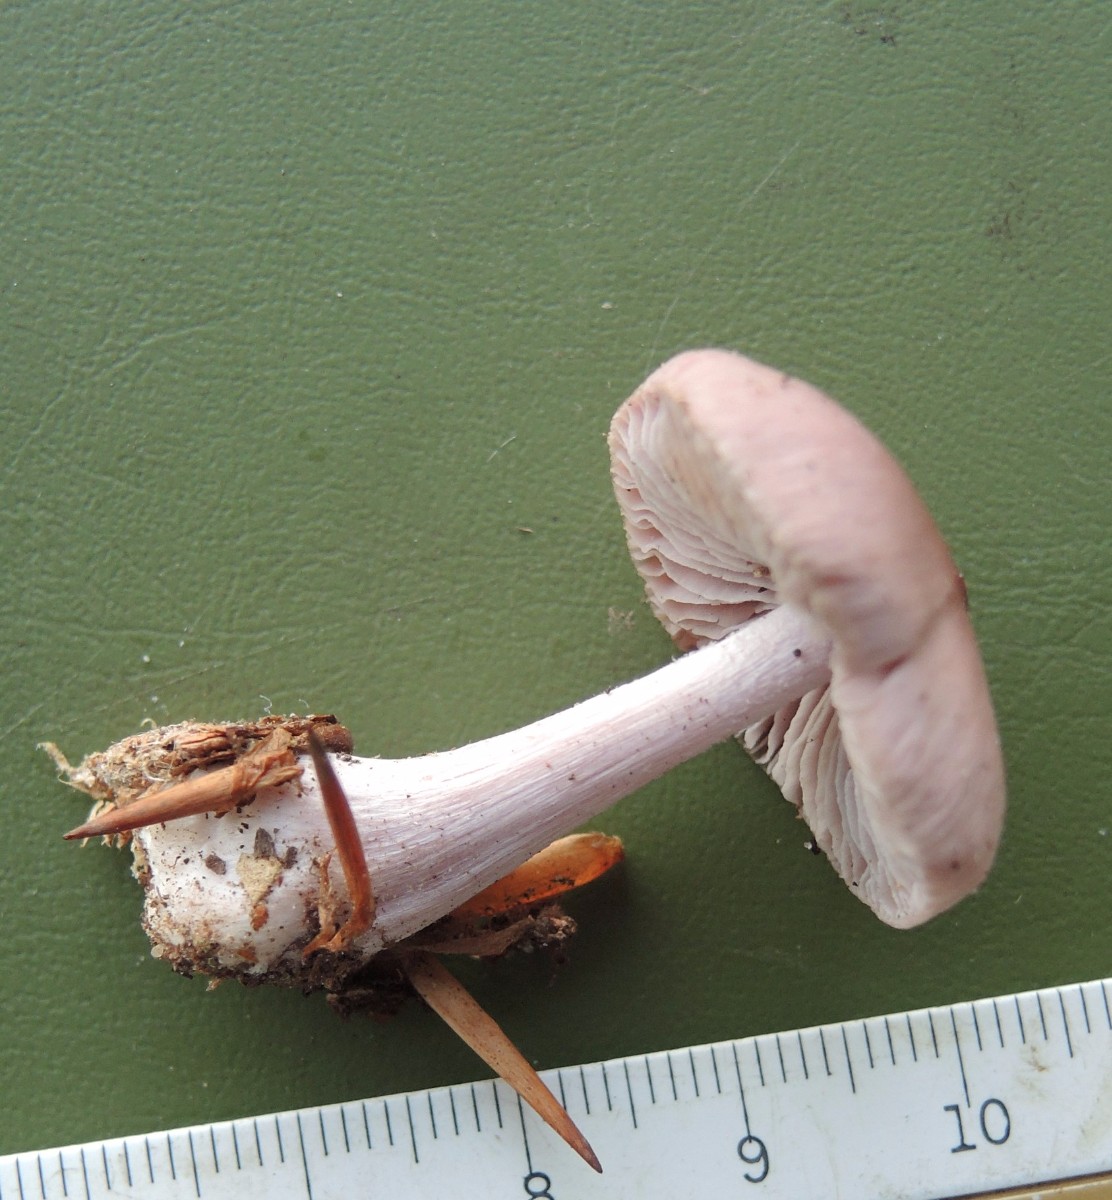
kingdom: Fungi
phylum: Basidiomycota
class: Agaricomycetes
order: Agaricales
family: Mycenaceae
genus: Mycena
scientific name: Mycena rosea
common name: rosa huesvamp
